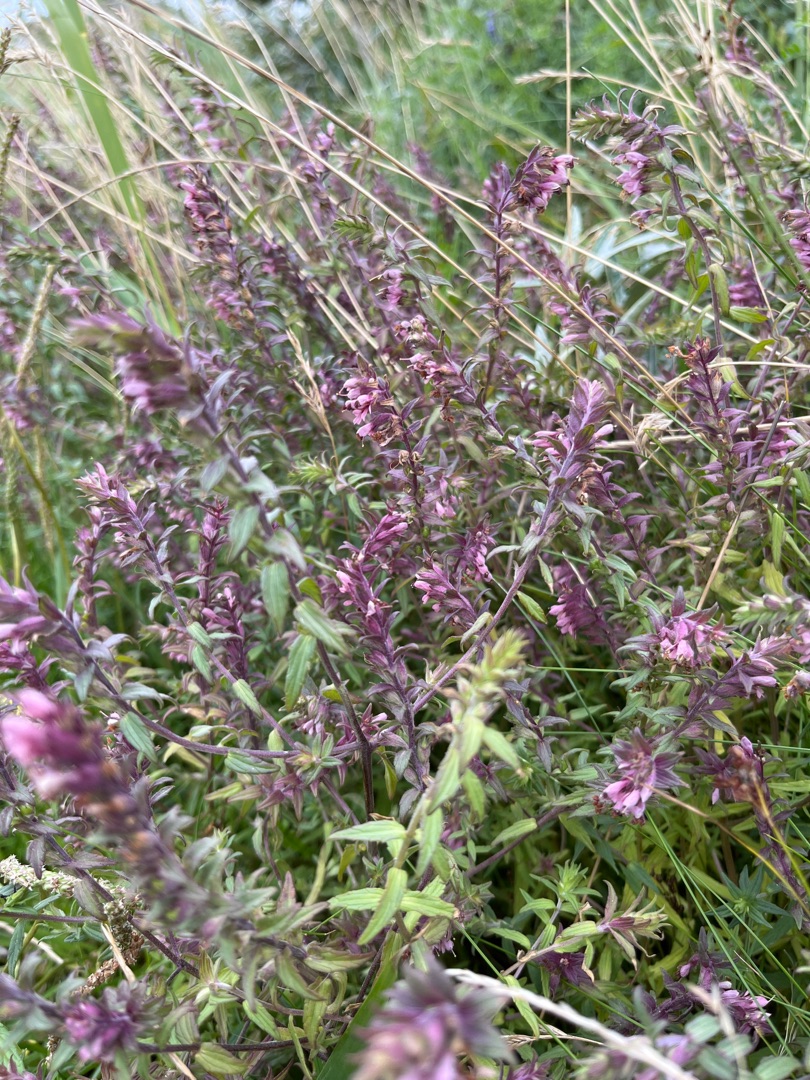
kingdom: Plantae
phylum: Tracheophyta
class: Magnoliopsida
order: Lamiales
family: Orobanchaceae
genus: Odontites
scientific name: Odontites vulgaris
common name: Høst-rødtop
